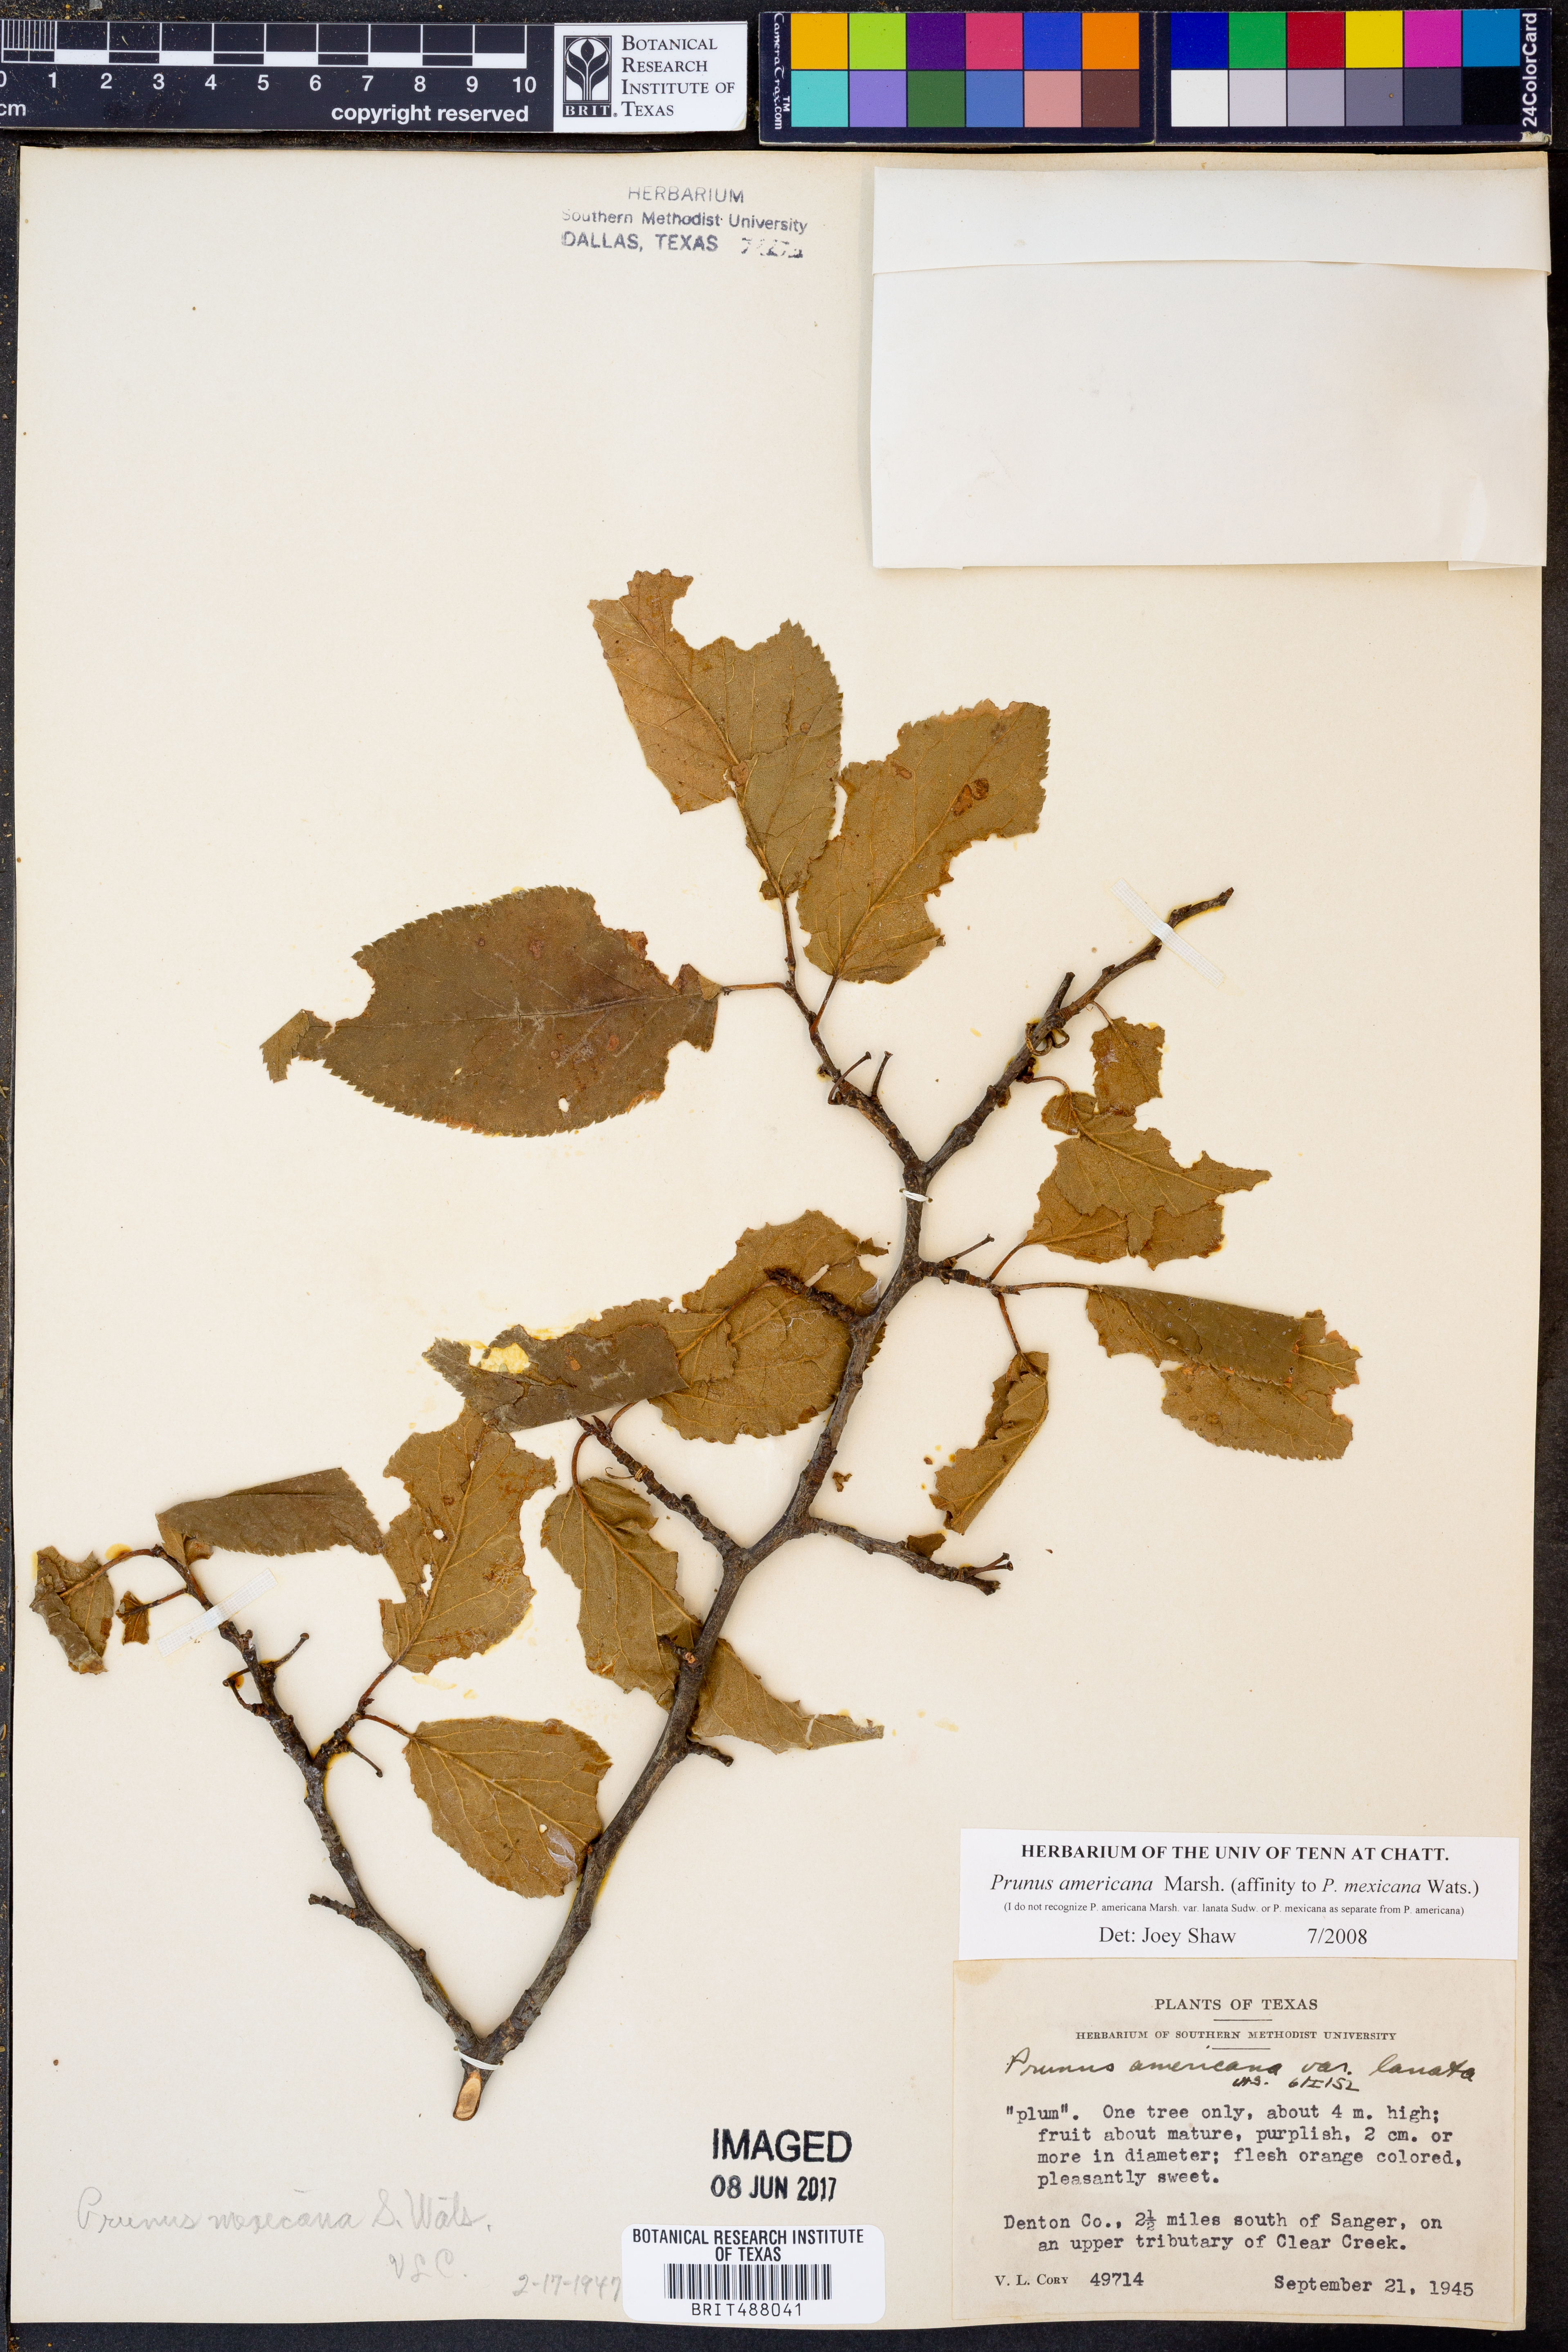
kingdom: Plantae
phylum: Tracheophyta
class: Magnoliopsida
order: Rosales
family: Rosaceae
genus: Prunus
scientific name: Prunus americana
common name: American plum
